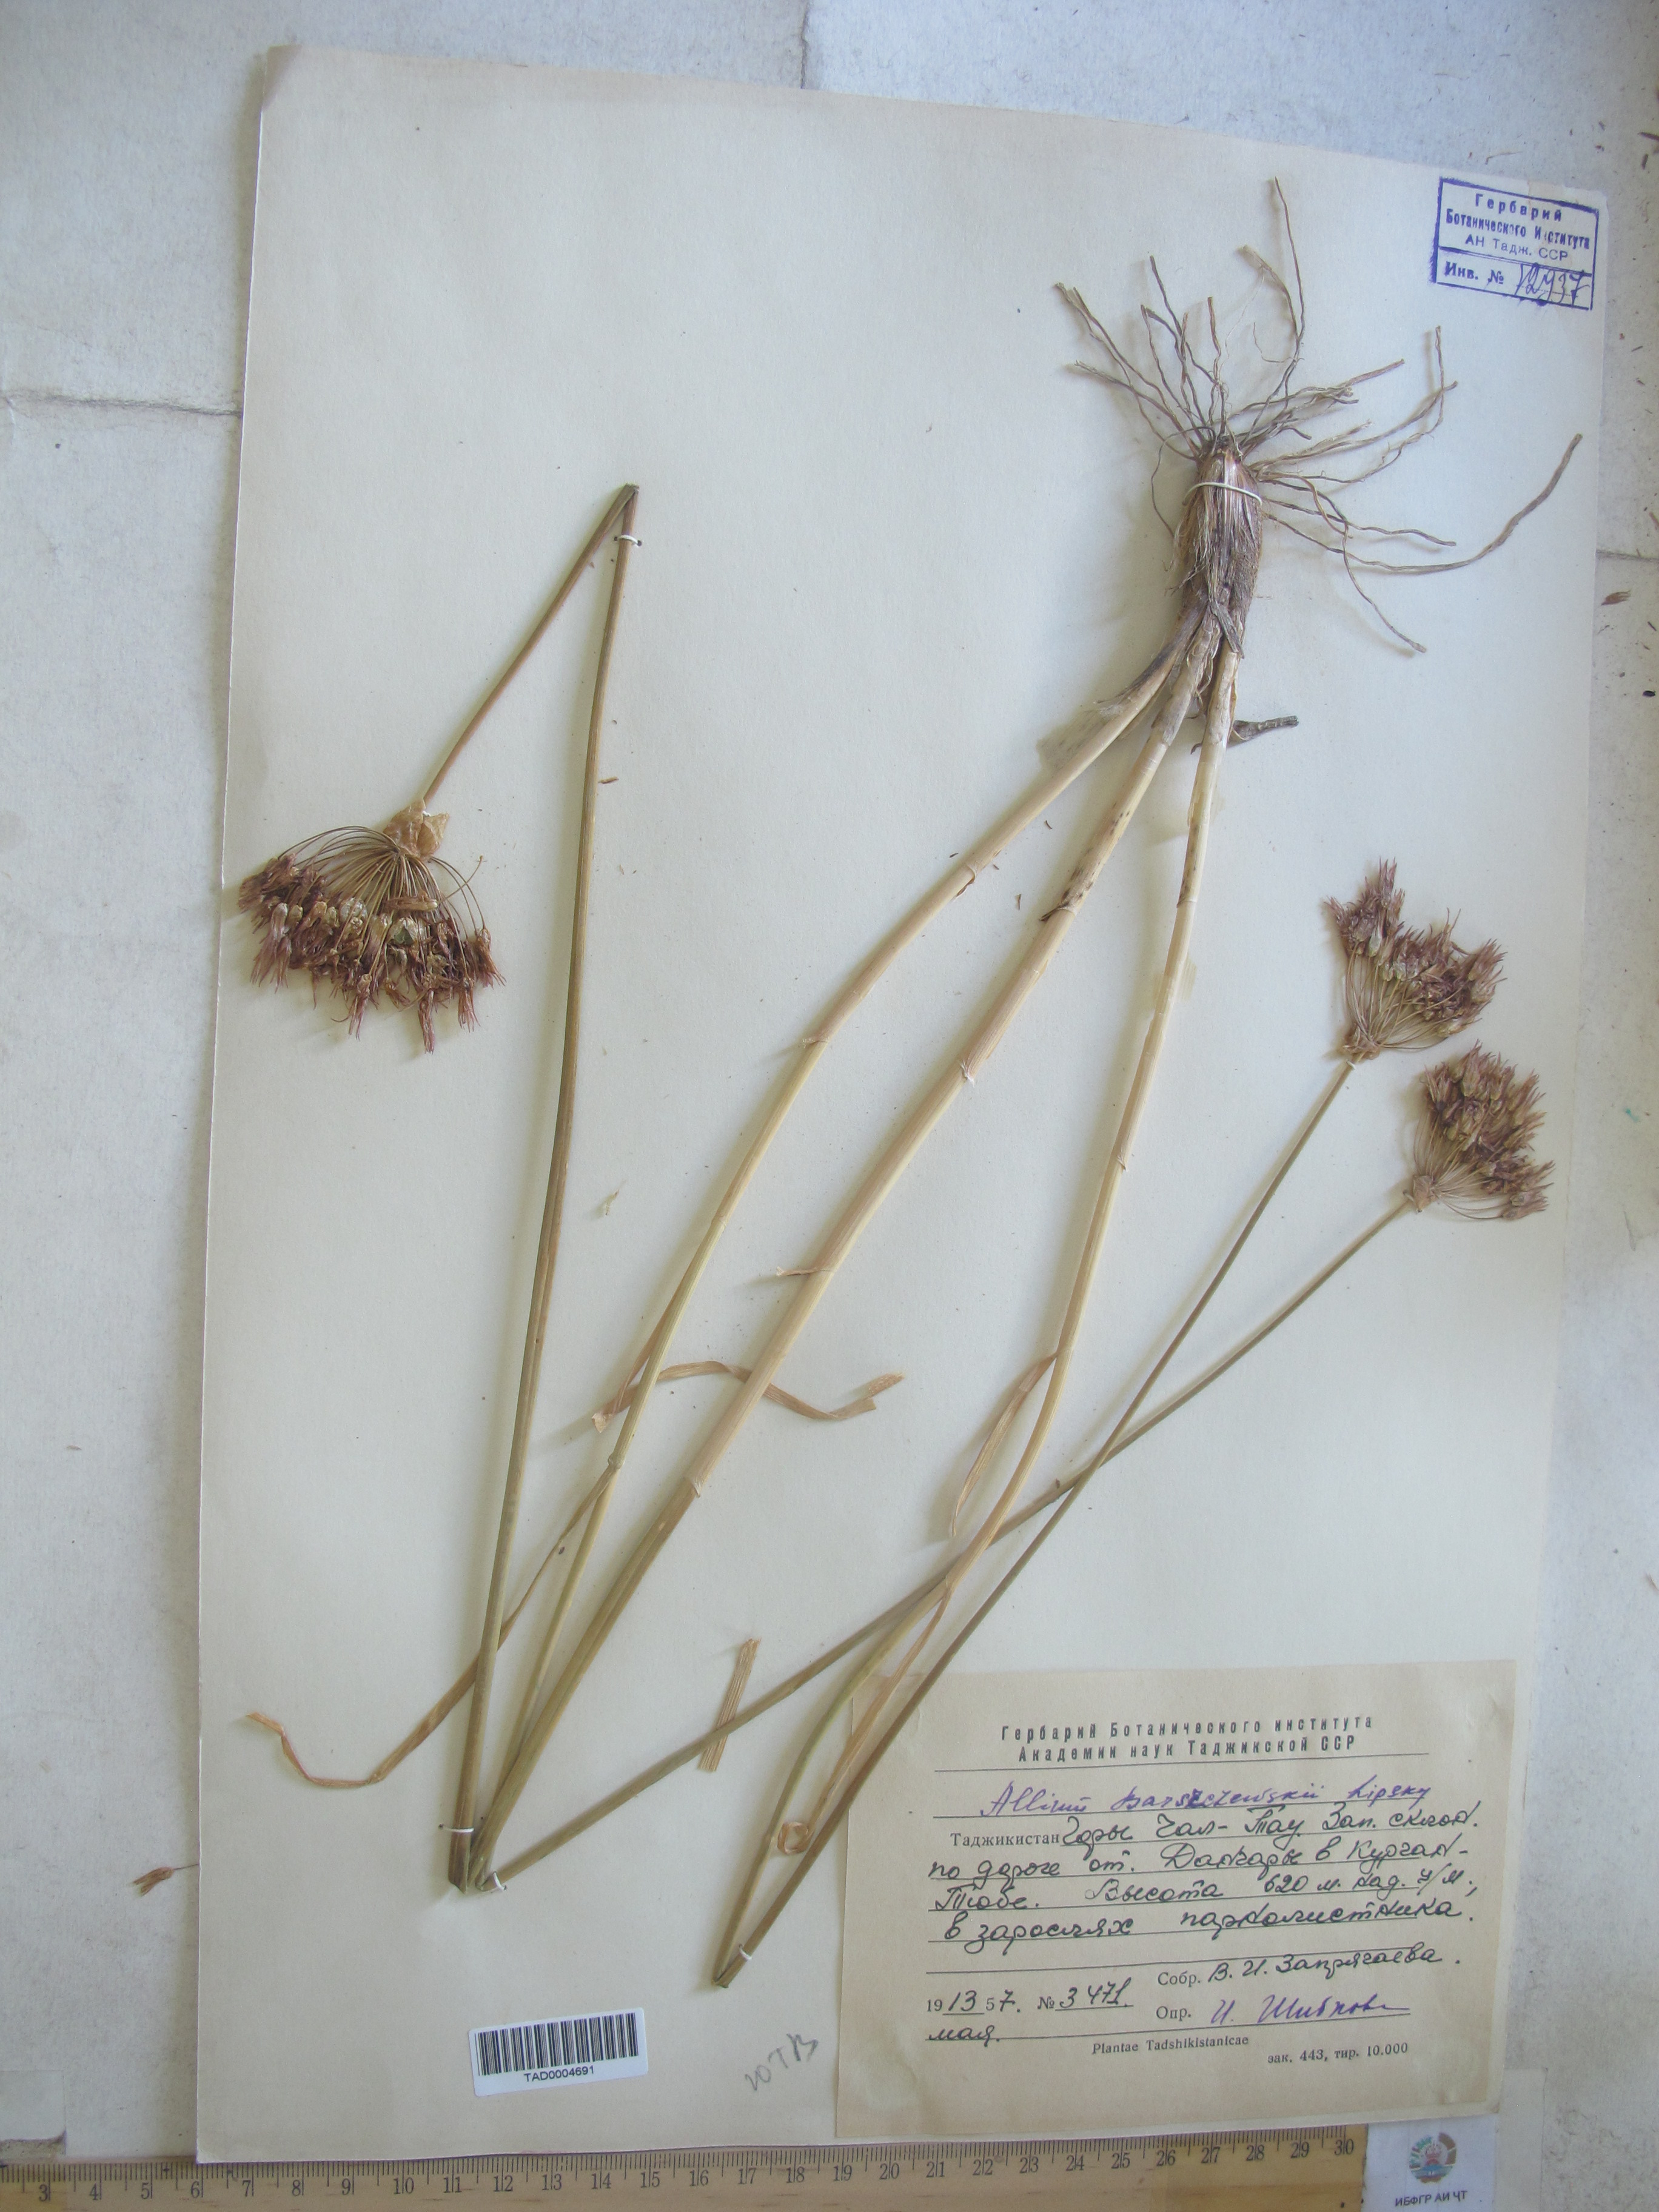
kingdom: Plantae
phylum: Tracheophyta
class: Liliopsida
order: Asparagales
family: Amaryllidaceae
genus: Allium
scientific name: Allium barsczewskii
